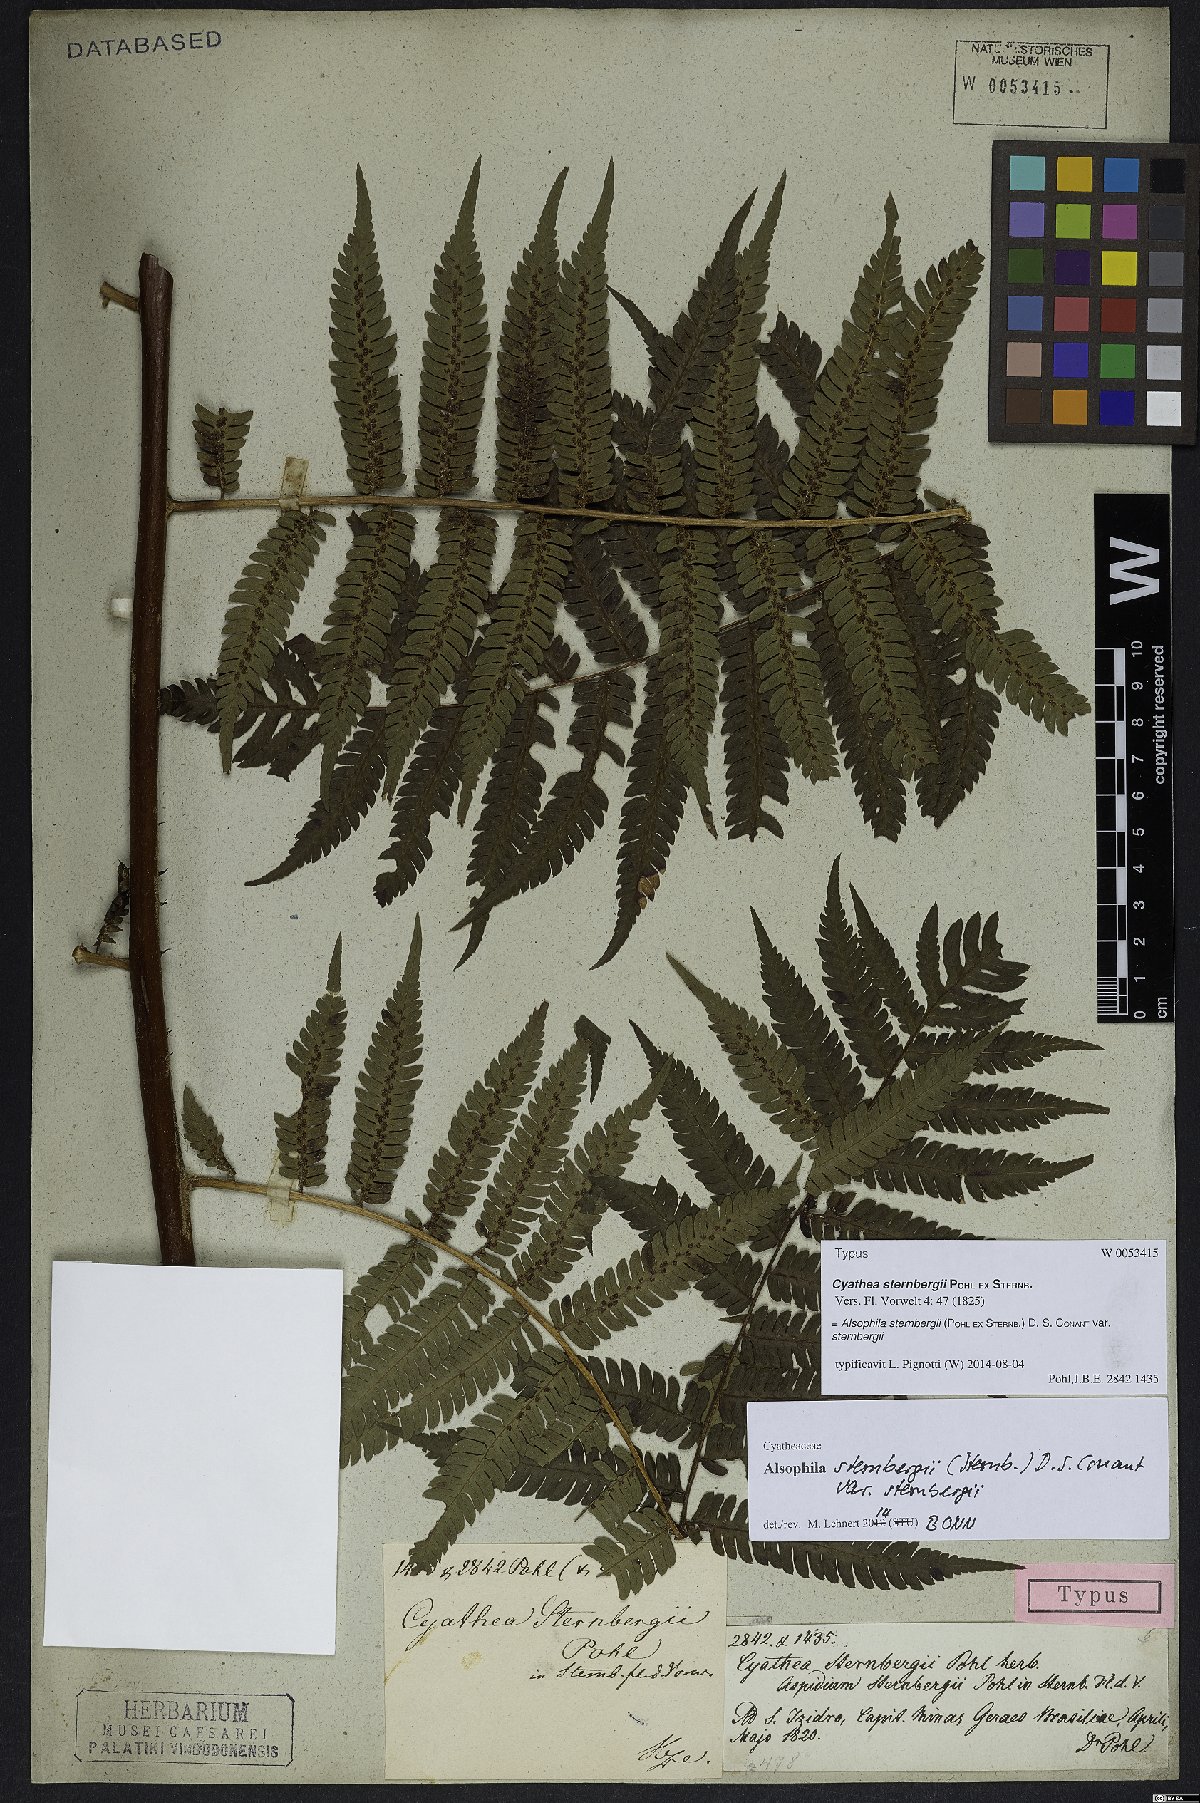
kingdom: Plantae
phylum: Tracheophyta
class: Polypodiopsida
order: Cyatheales
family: Cyatheaceae
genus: Alsophila
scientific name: Alsophila sternbergii
